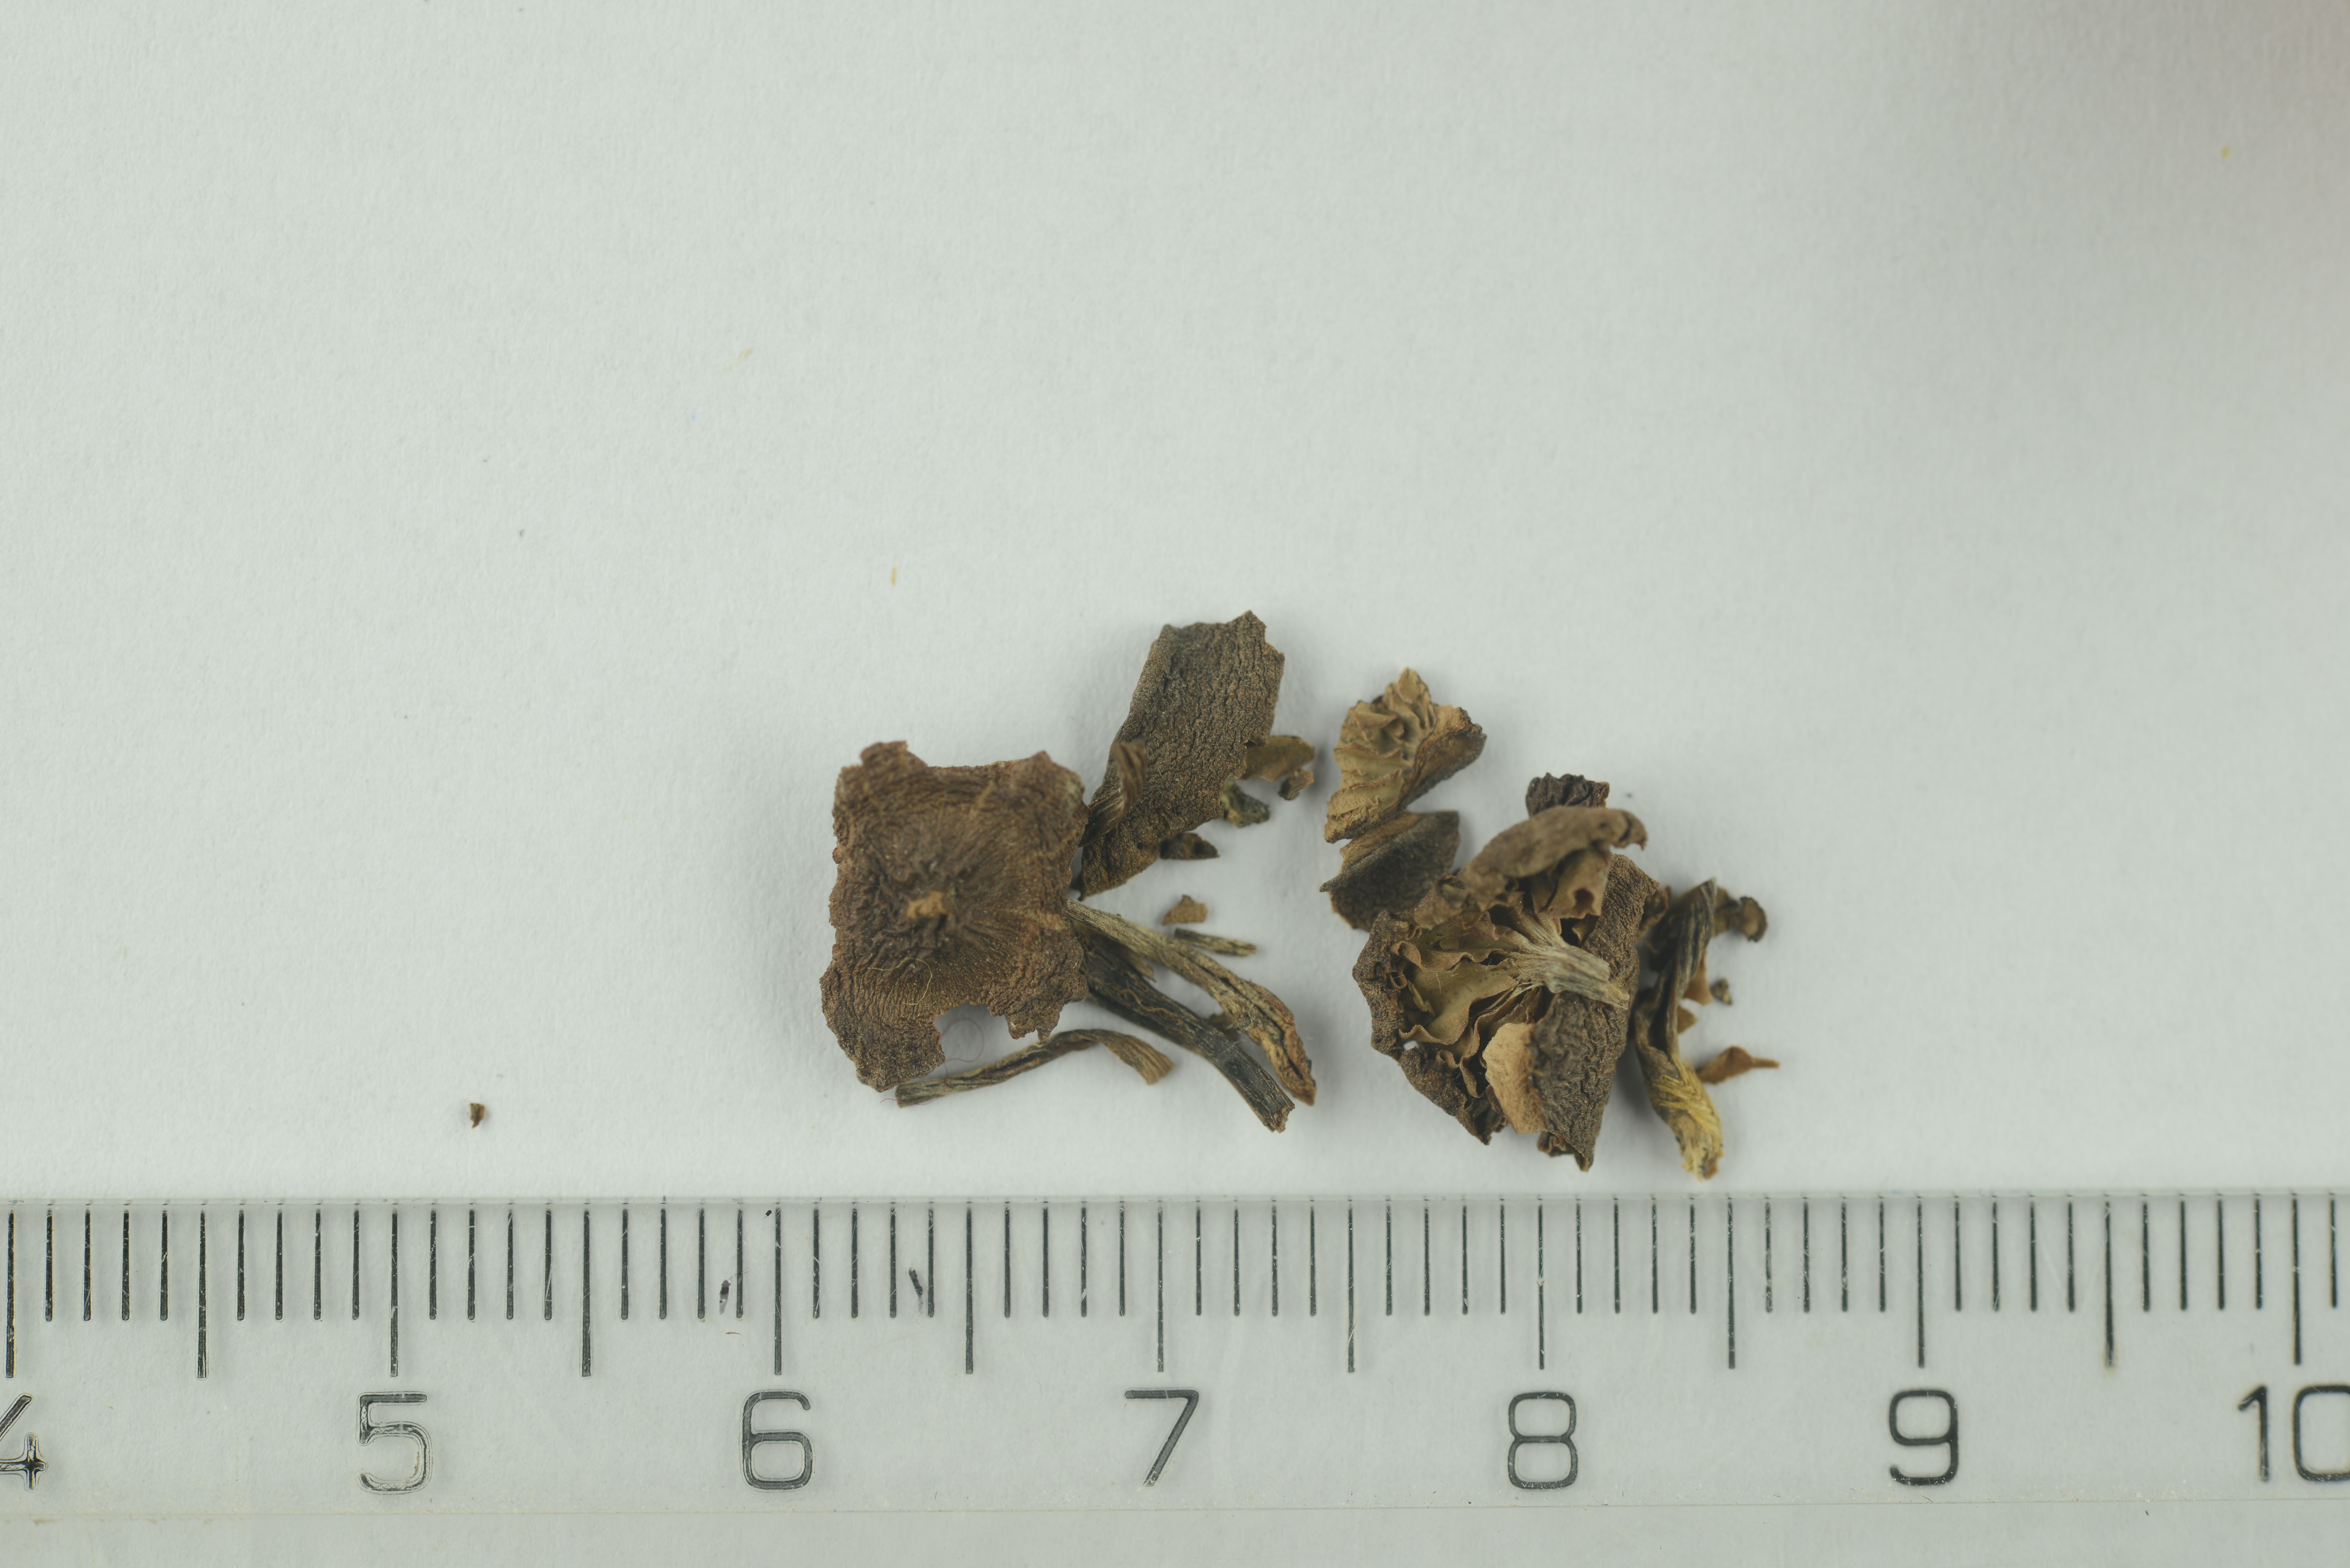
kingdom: Fungi
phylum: Basidiomycota
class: Agaricomycetes
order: Agaricales
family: Cortinariaceae
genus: Cortinarius
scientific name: Cortinarius
